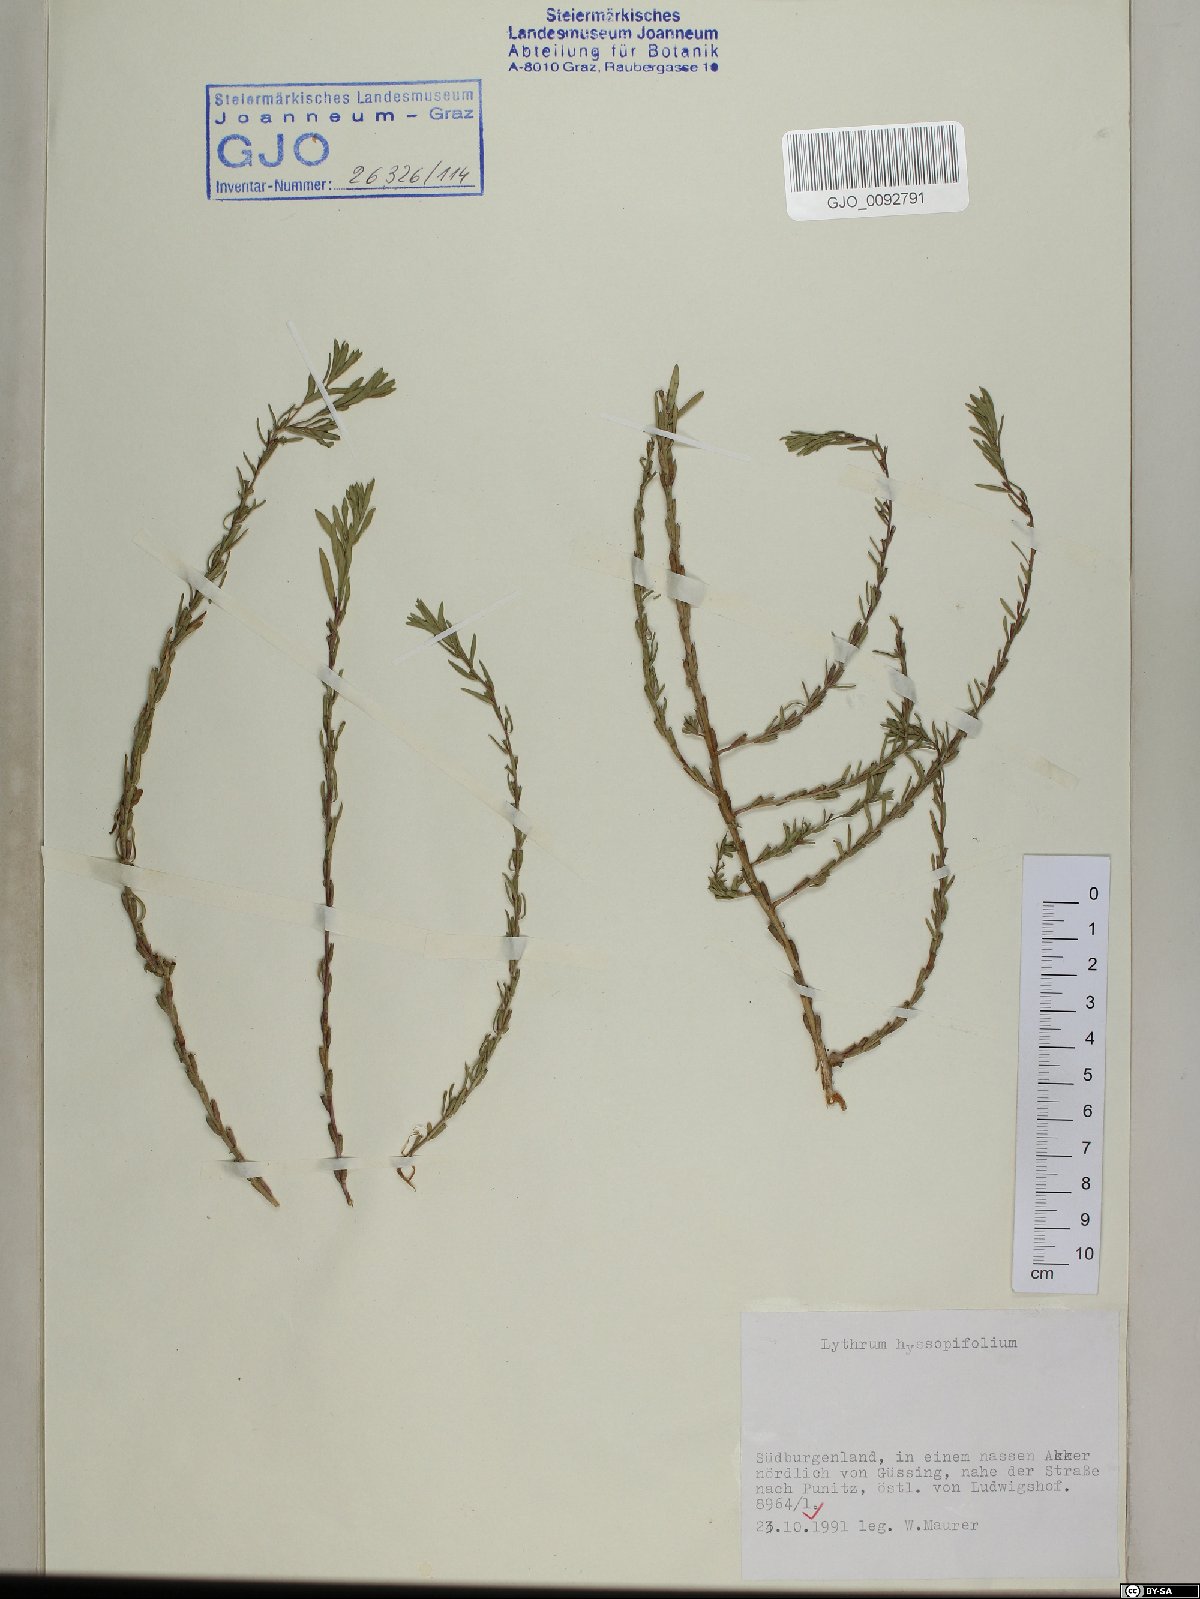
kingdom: Plantae
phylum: Tracheophyta
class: Magnoliopsida
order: Myrtales
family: Lythraceae
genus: Lythrum
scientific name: Lythrum hyssopifolia
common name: Grass-poly
